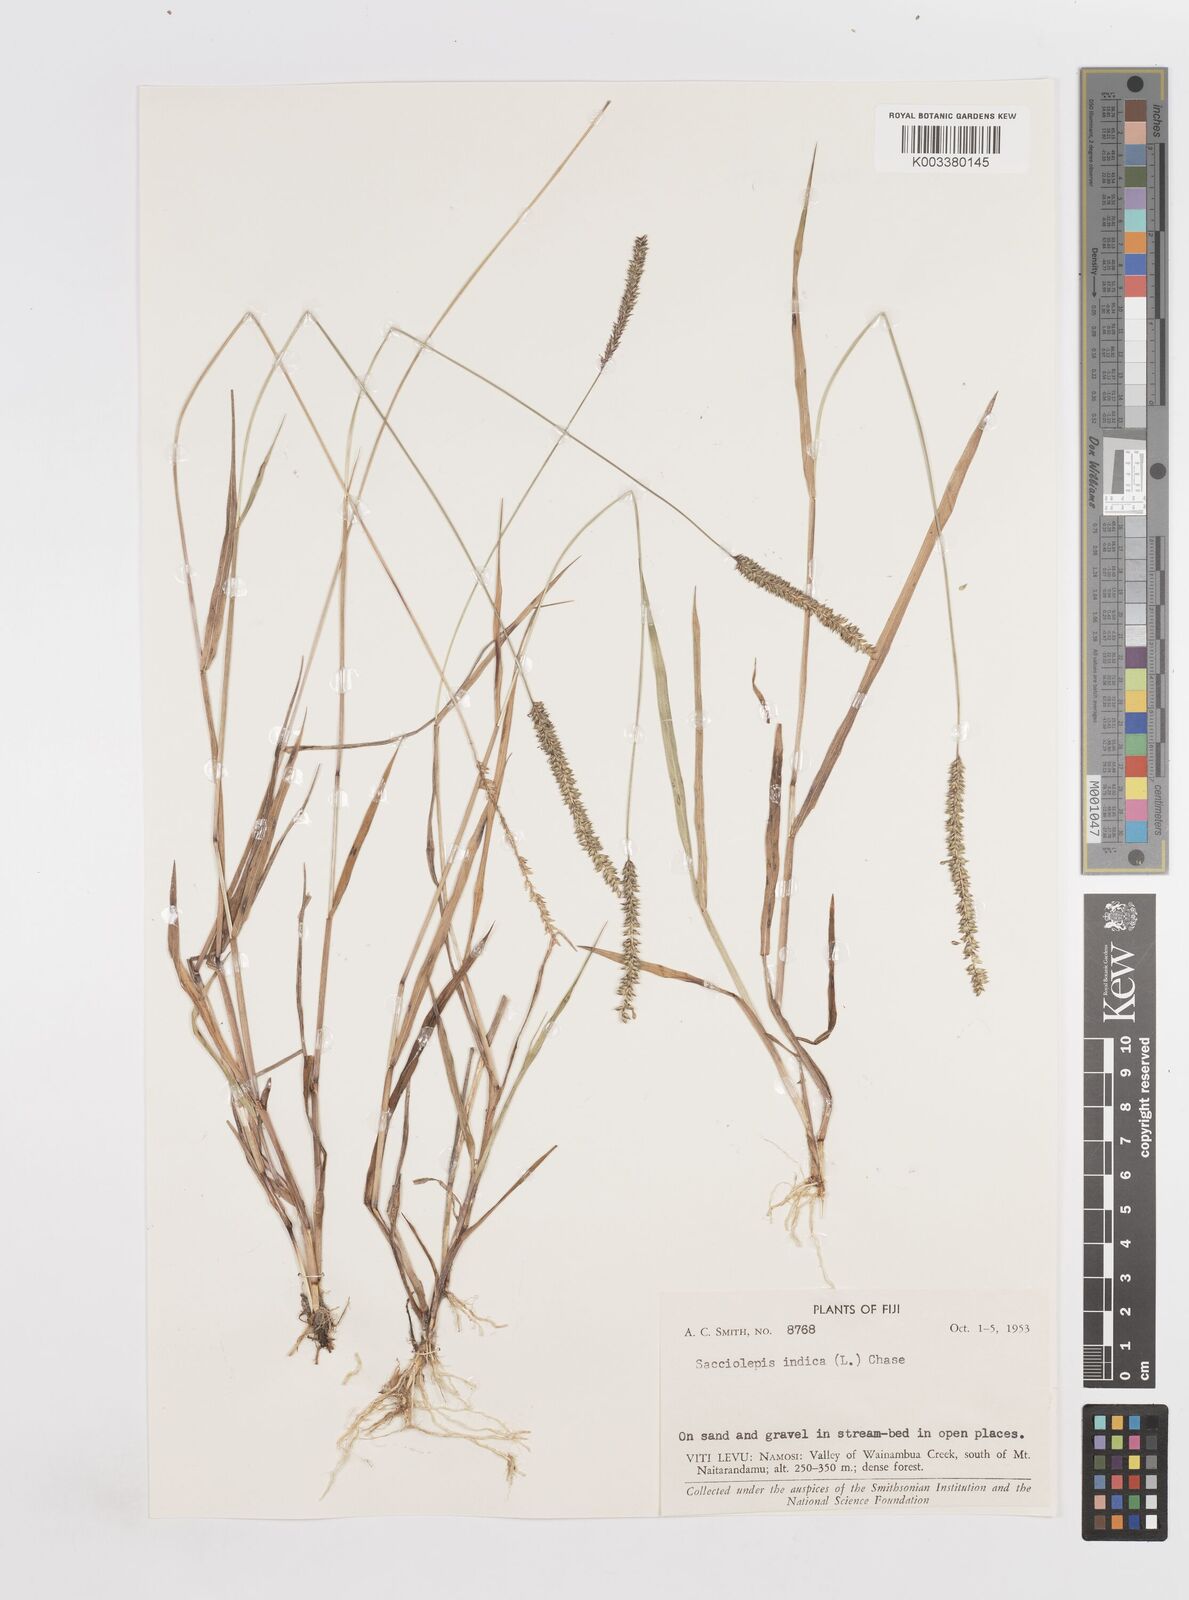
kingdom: Plantae
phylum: Tracheophyta
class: Liliopsida
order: Poales
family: Poaceae
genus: Sacciolepis
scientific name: Sacciolepis indica
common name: Glenwoodgrass
